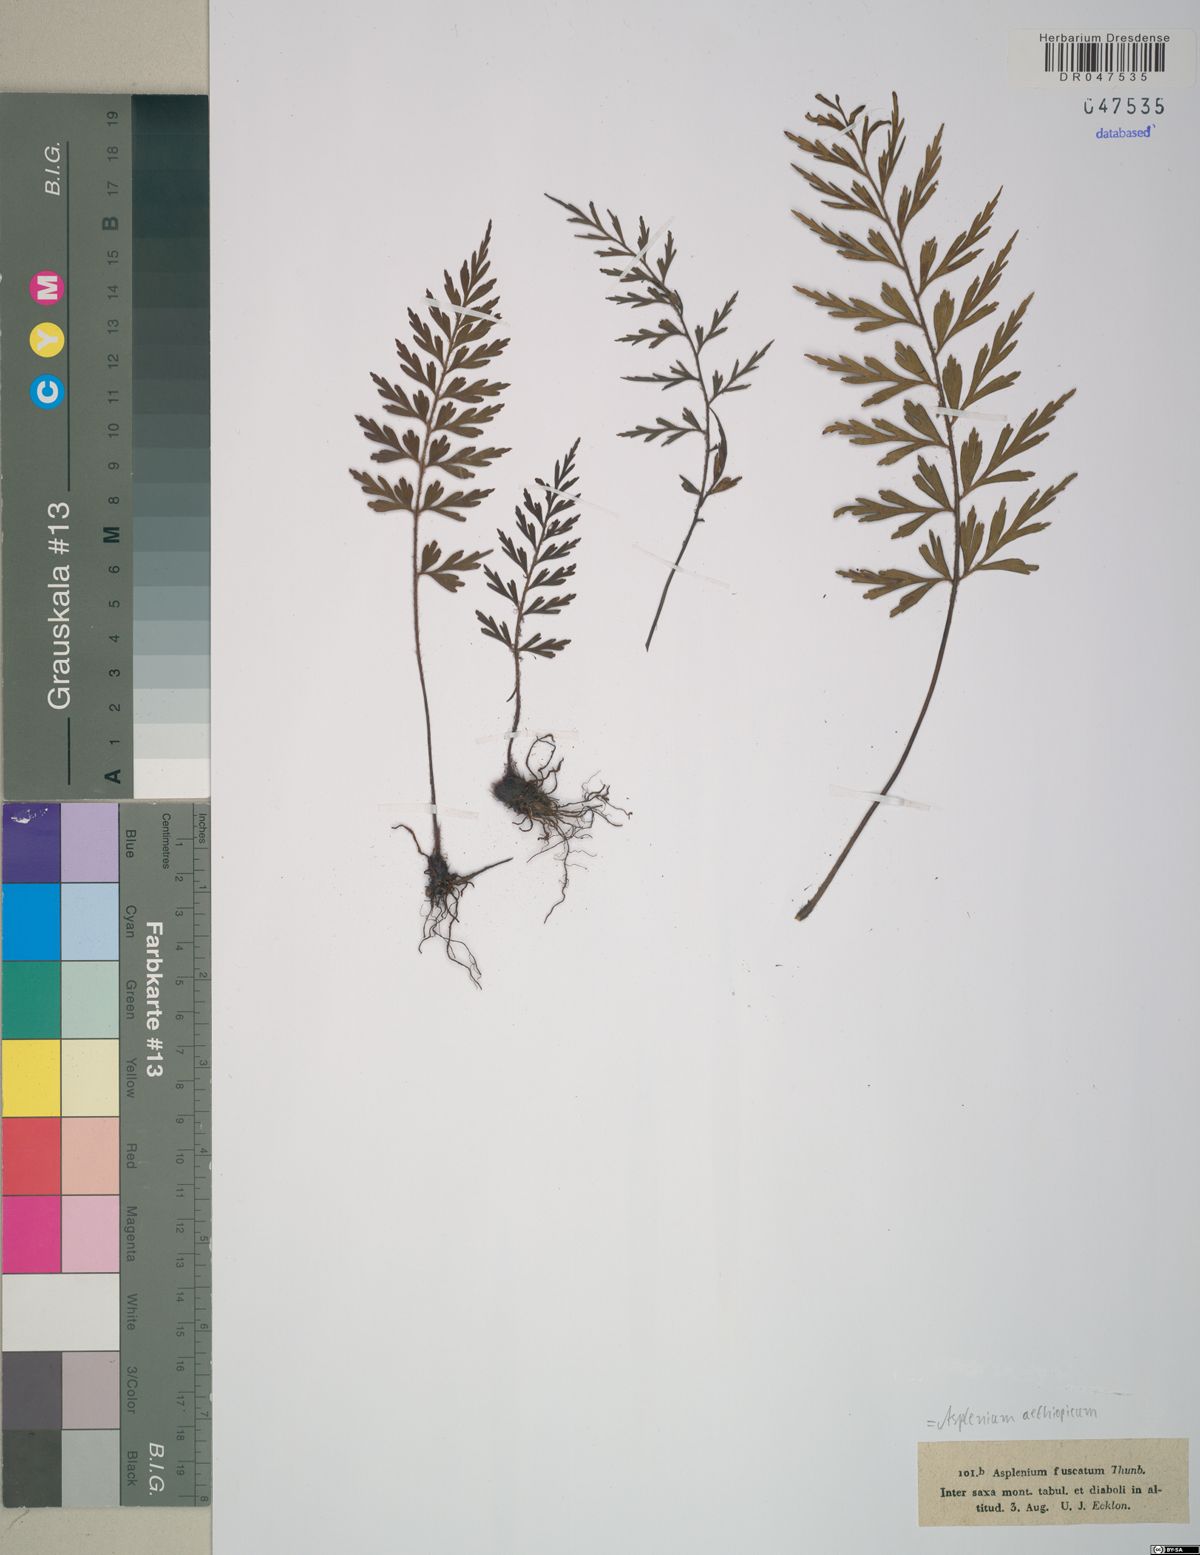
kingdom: Plantae
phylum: Tracheophyta
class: Polypodiopsida
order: Polypodiales
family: Aspleniaceae
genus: Asplenium
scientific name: Asplenium aethiopicum
